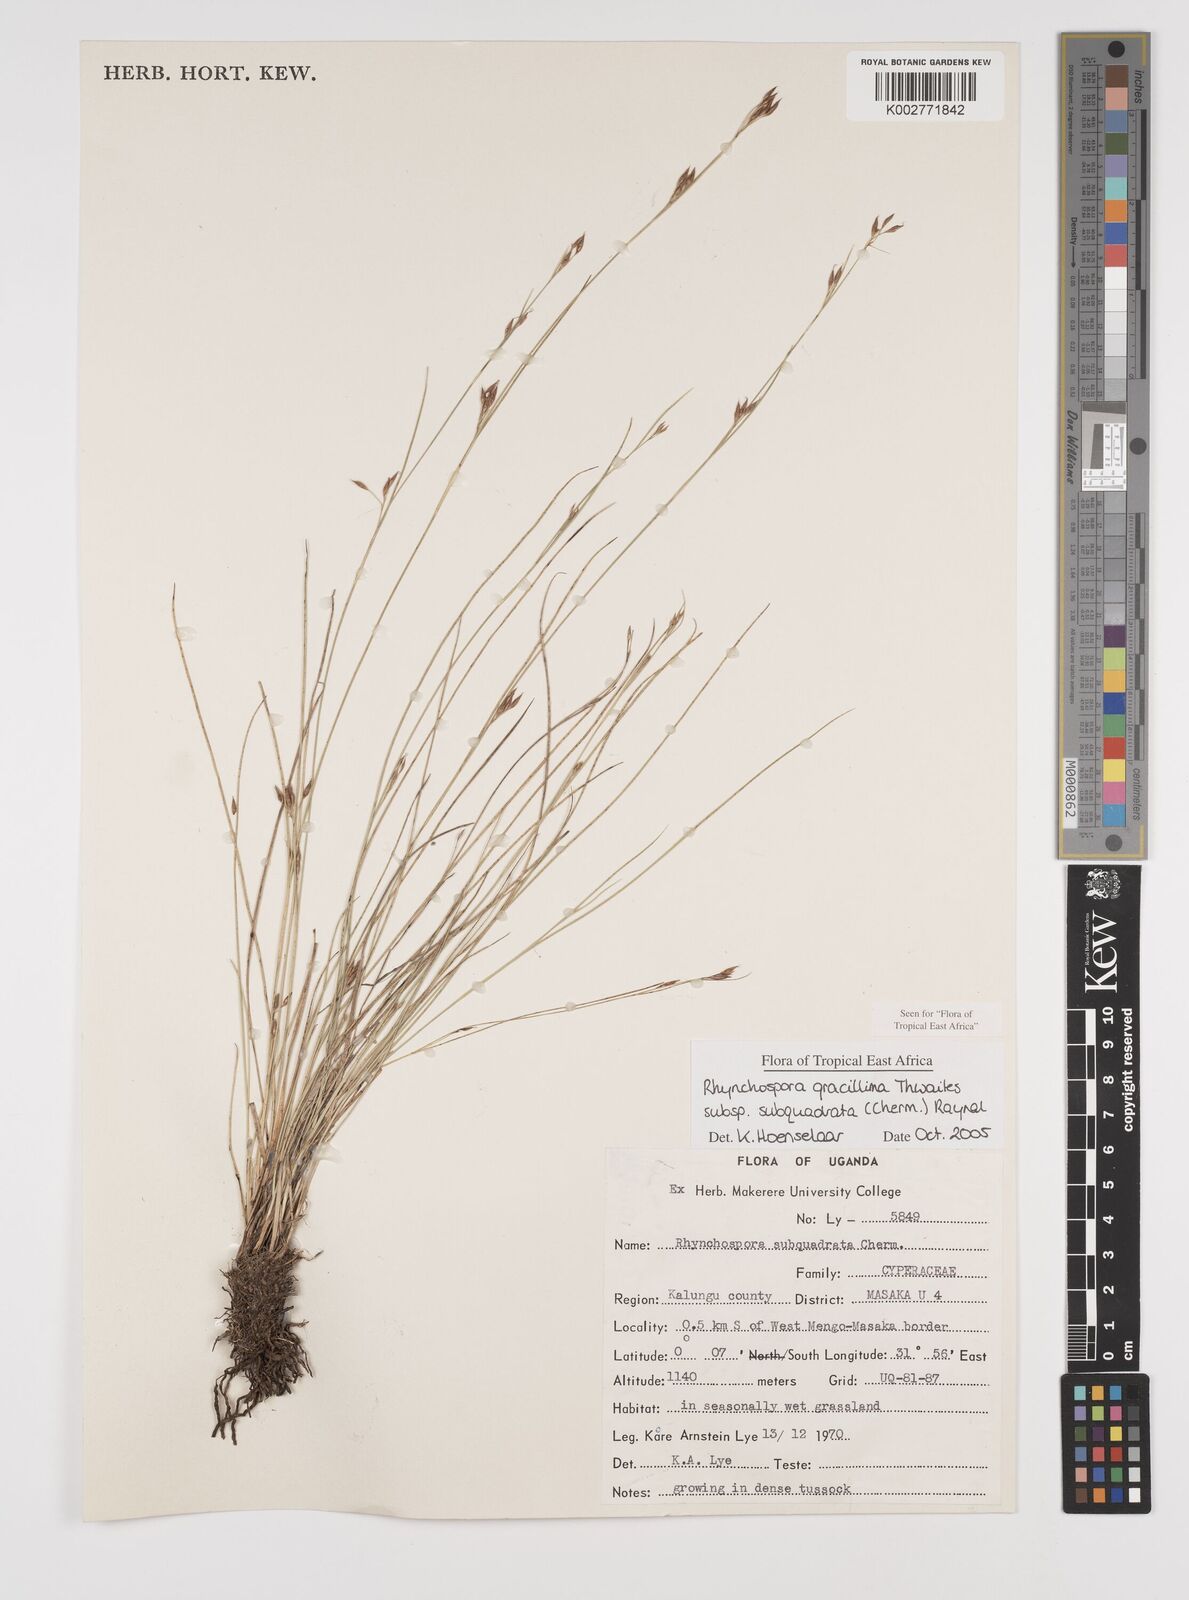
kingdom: Plantae
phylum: Tracheophyta
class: Liliopsida
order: Poales
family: Cyperaceae
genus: Rhynchospora
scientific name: Rhynchospora gracillima
